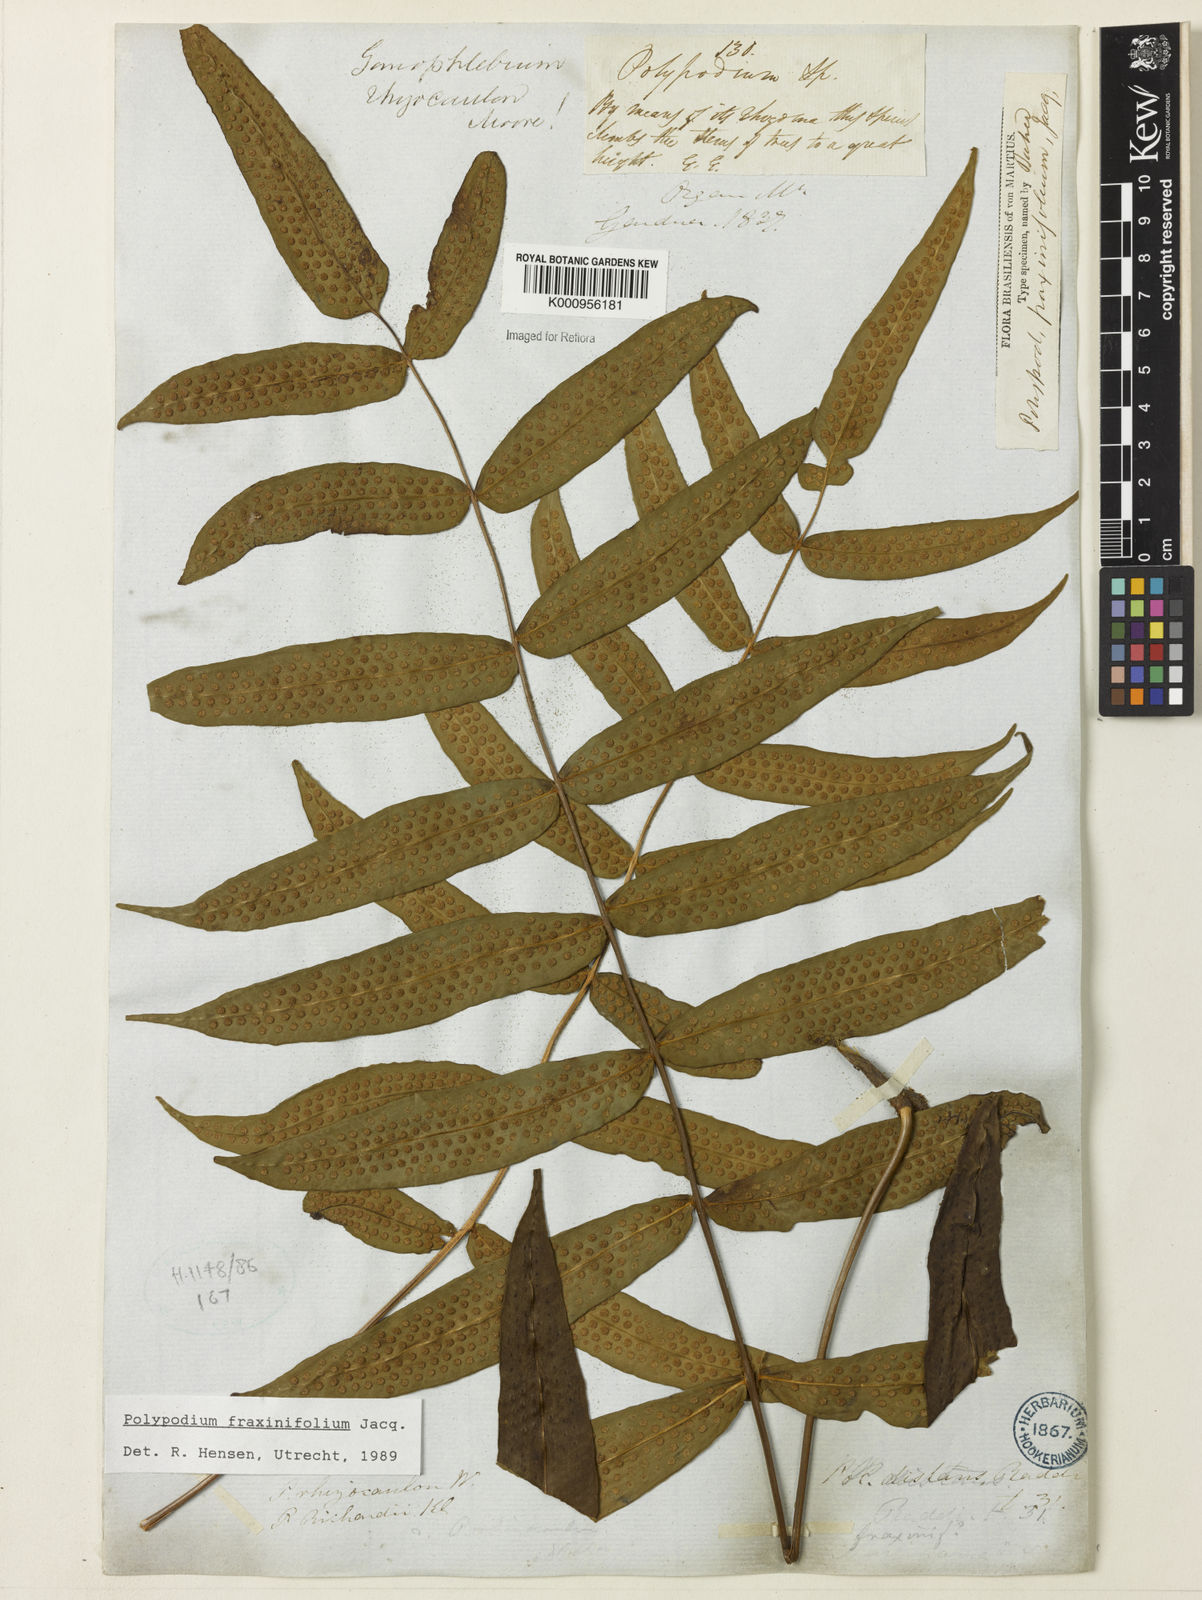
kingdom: Plantae
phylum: Tracheophyta
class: Polypodiopsida
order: Polypodiales
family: Polypodiaceae
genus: Serpocaulon
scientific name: Serpocaulon fraxinifolium
